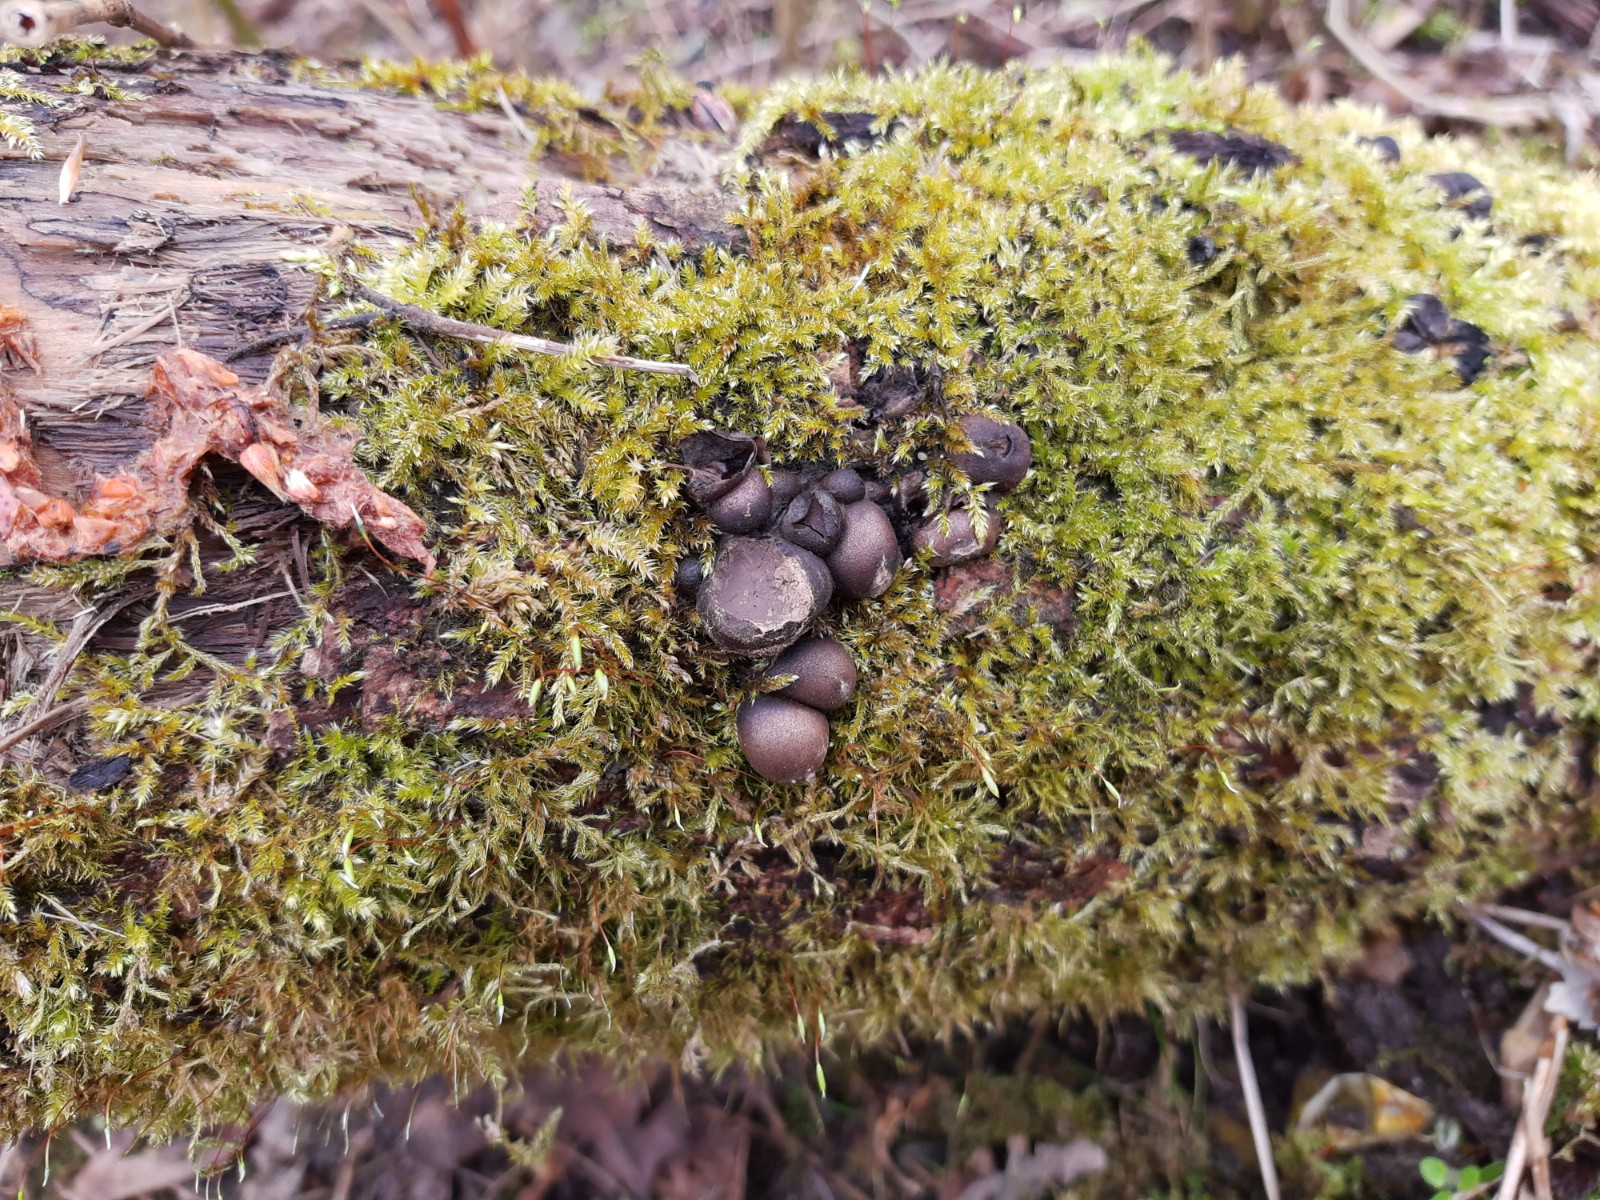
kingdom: Protozoa
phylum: Mycetozoa
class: Myxomycetes
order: Cribrariales
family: Tubiferaceae
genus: Lycogala
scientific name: Lycogala epidendrum
